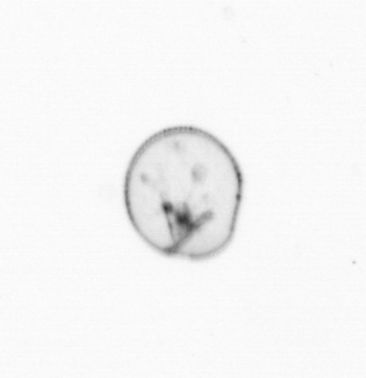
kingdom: Chromista
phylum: Myzozoa
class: Dinophyceae
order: Noctilucales
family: Noctilucaceae
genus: Noctiluca
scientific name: Noctiluca scintillans
